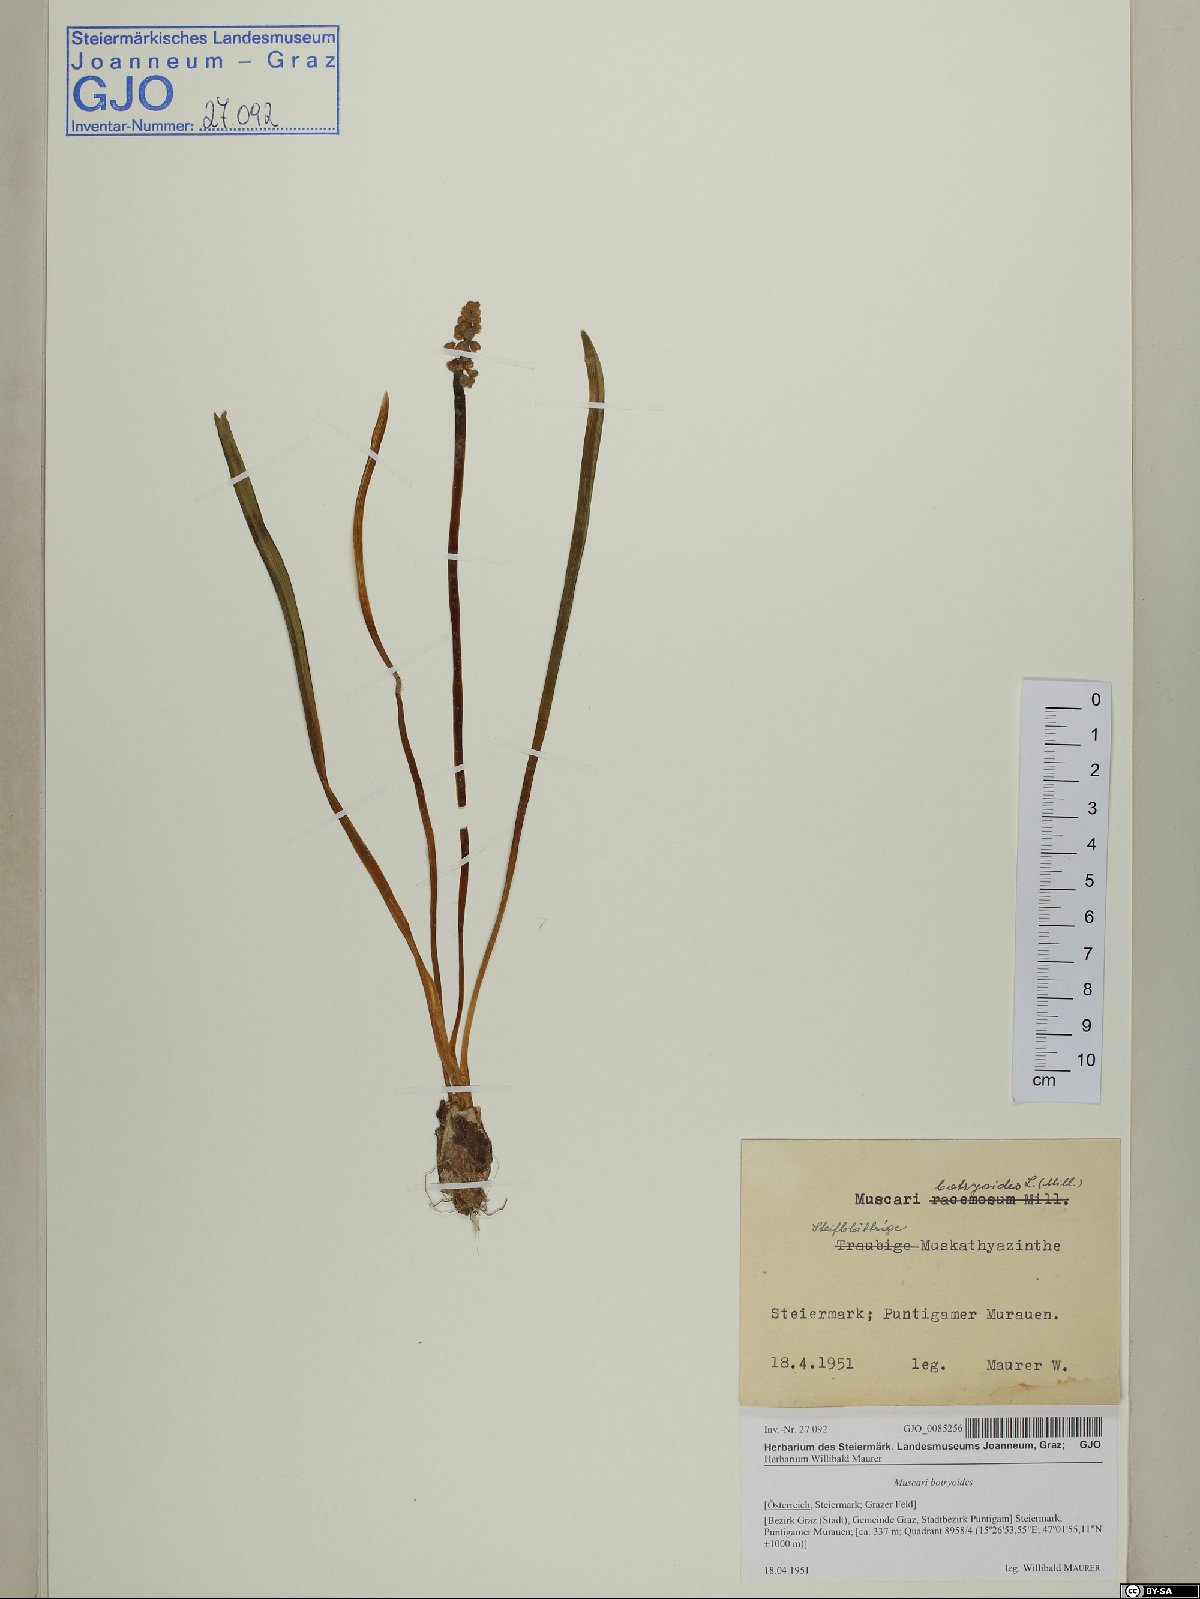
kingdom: Plantae
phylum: Tracheophyta
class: Liliopsida
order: Asparagales
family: Asparagaceae
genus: Muscari
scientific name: Muscari botryoides
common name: Compact grape-hyacinth
